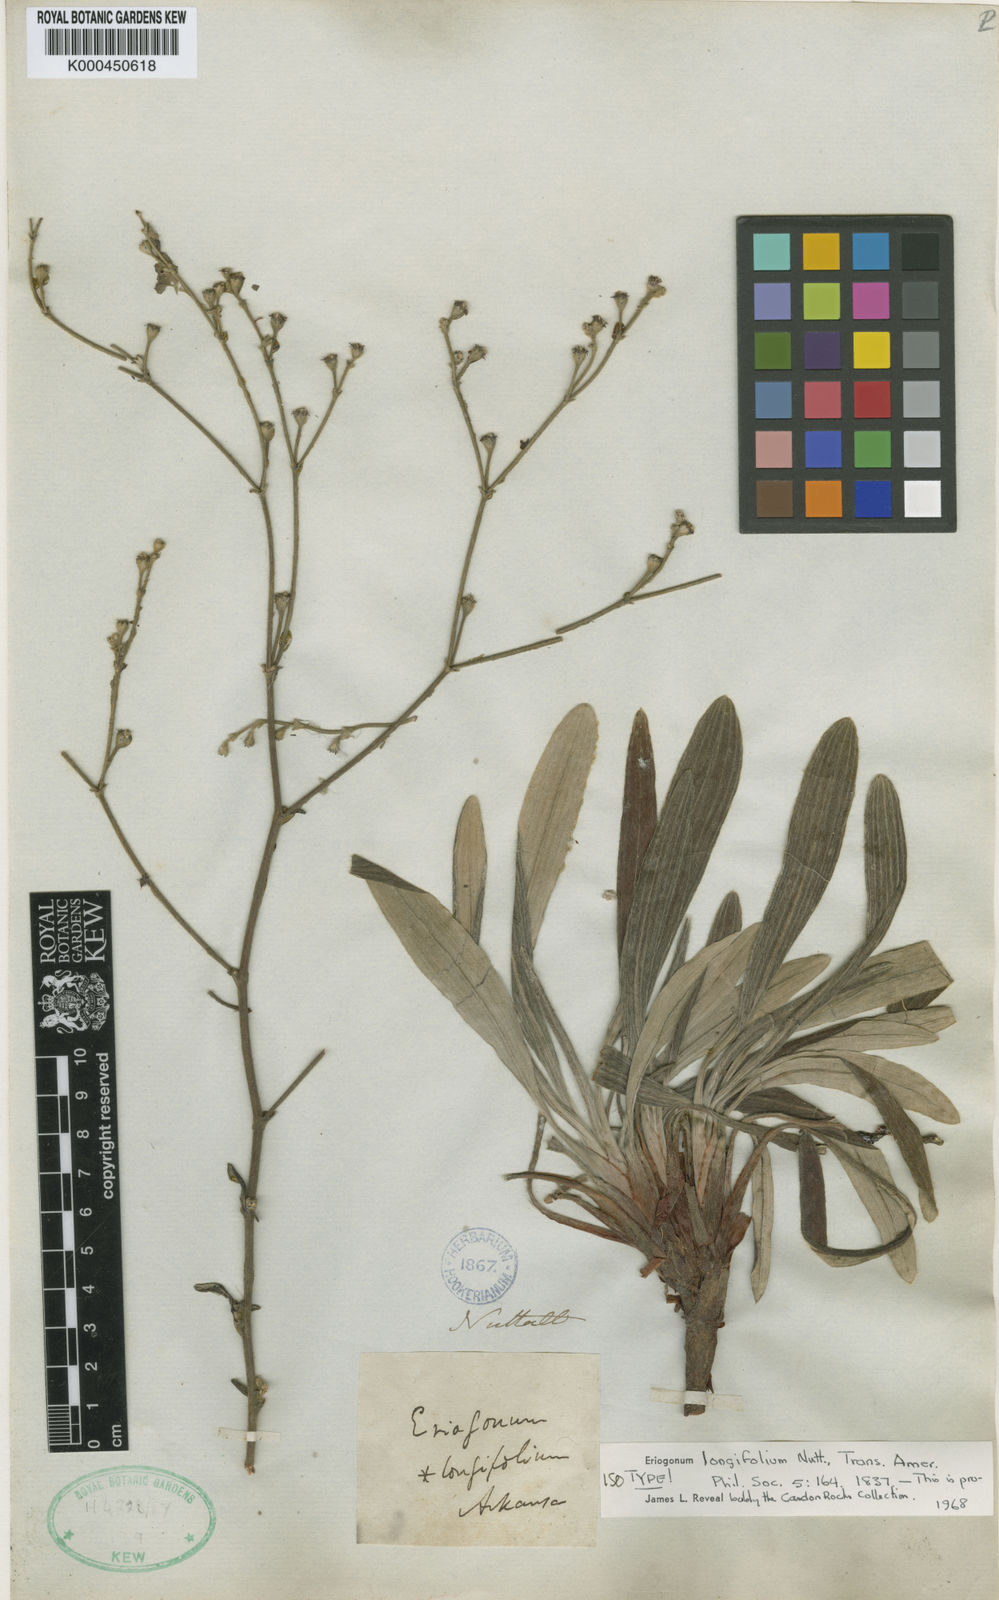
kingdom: Plantae
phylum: Tracheophyta
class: Magnoliopsida
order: Caryophyllales
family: Polygonaceae
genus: Eriogonum
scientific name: Eriogonum longifolium
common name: Longleaf wild buckwheat
